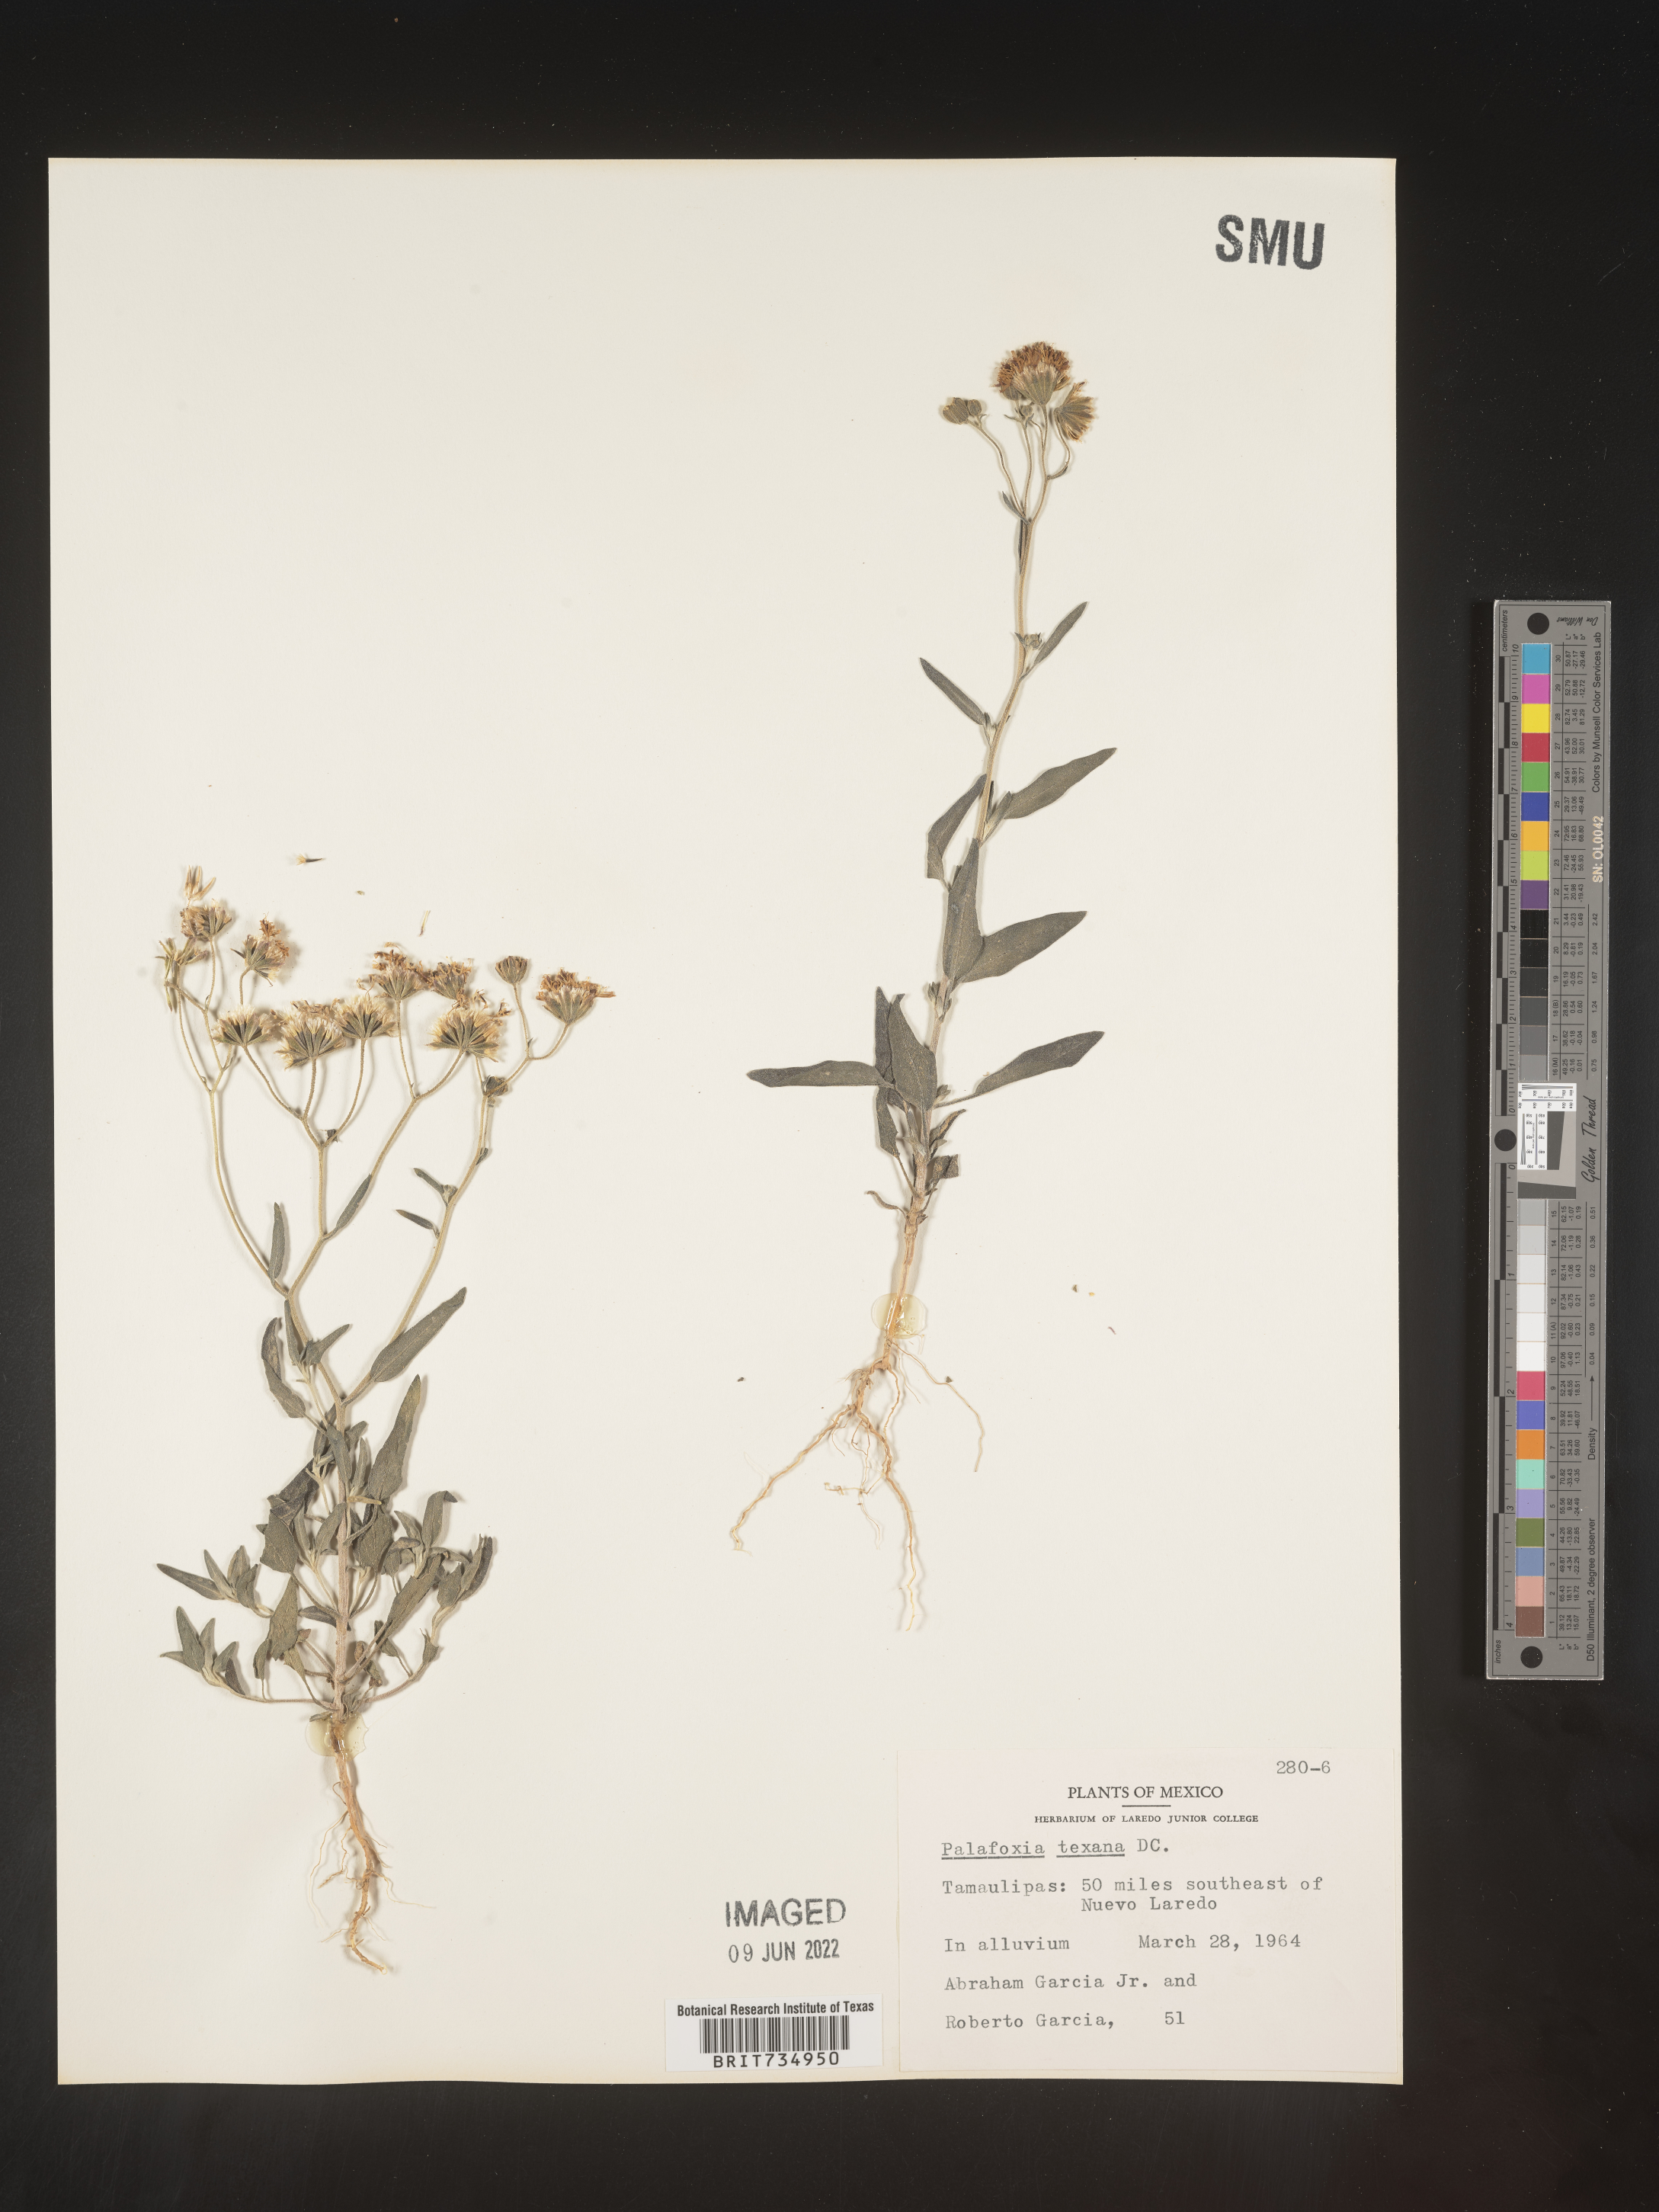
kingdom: Plantae
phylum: Tracheophyta
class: Magnoliopsida
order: Asterales
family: Asteraceae
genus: Palafoxia
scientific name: Palafoxia texana
